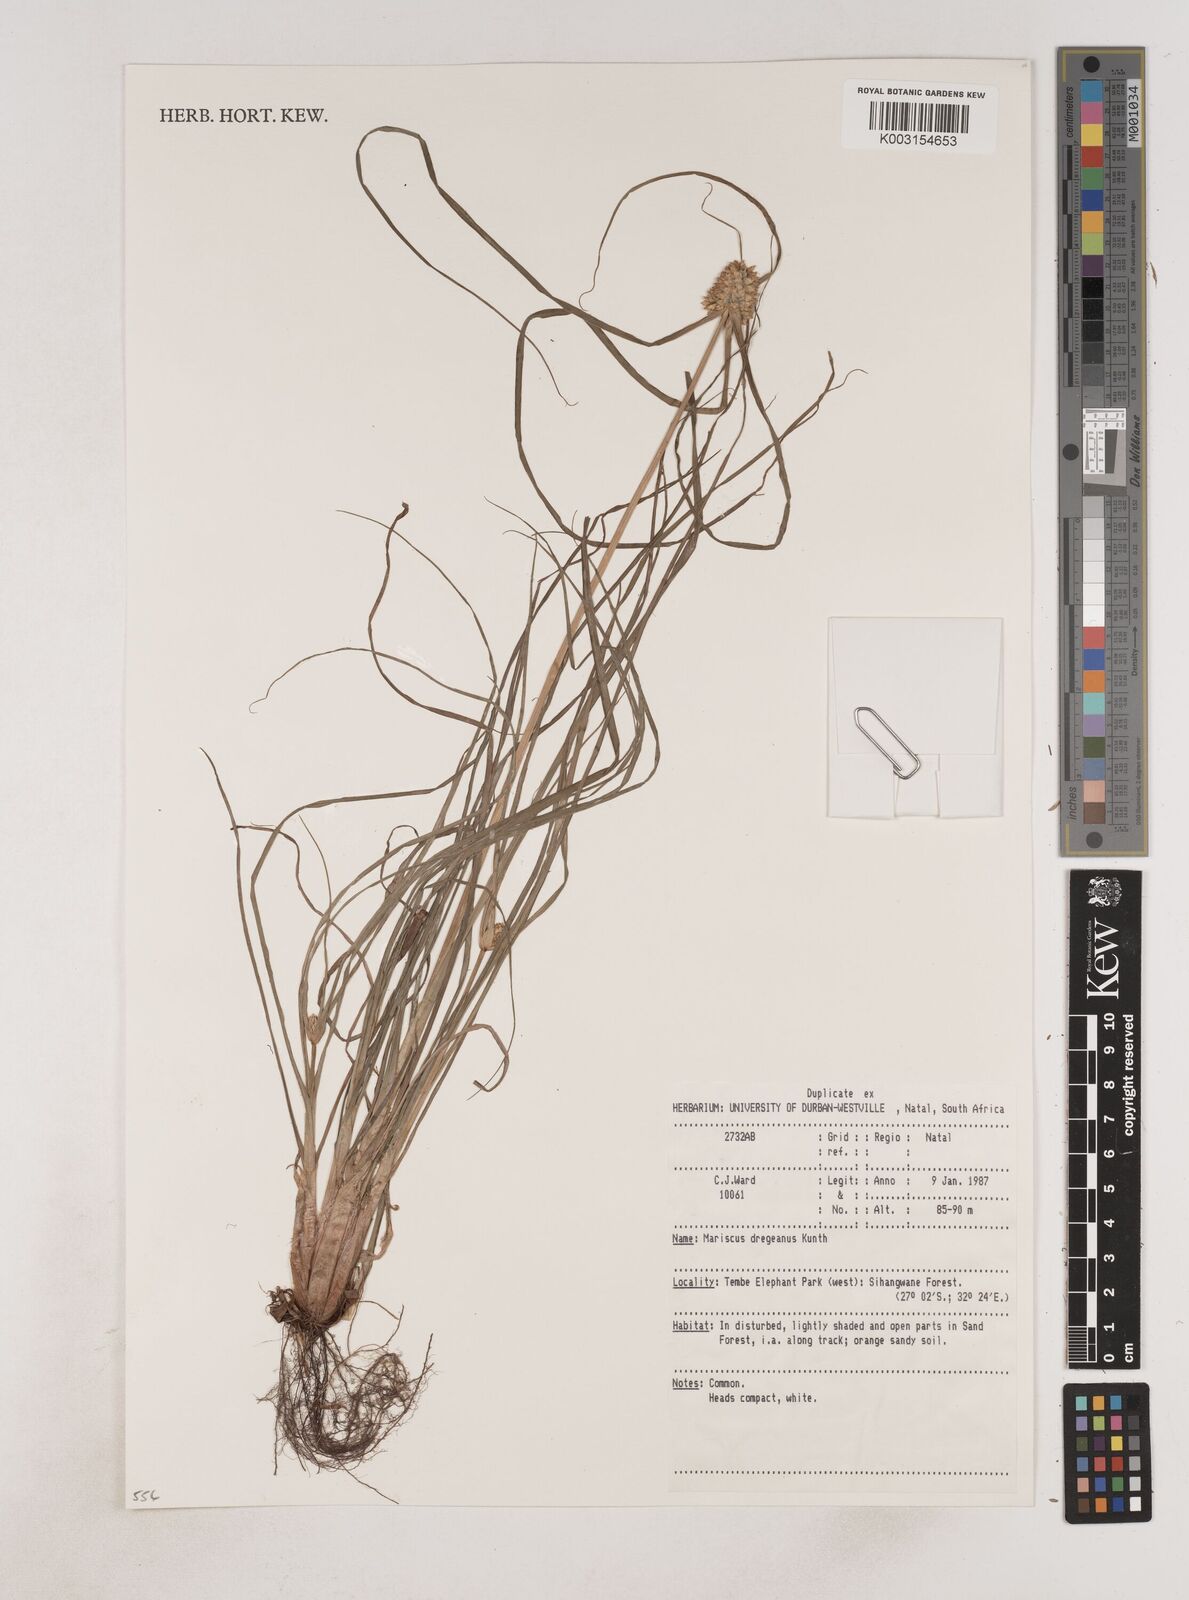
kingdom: Plantae
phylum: Tracheophyta
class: Liliopsida
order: Poales
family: Cyperaceae
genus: Cyperus
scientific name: Cyperus dubius
